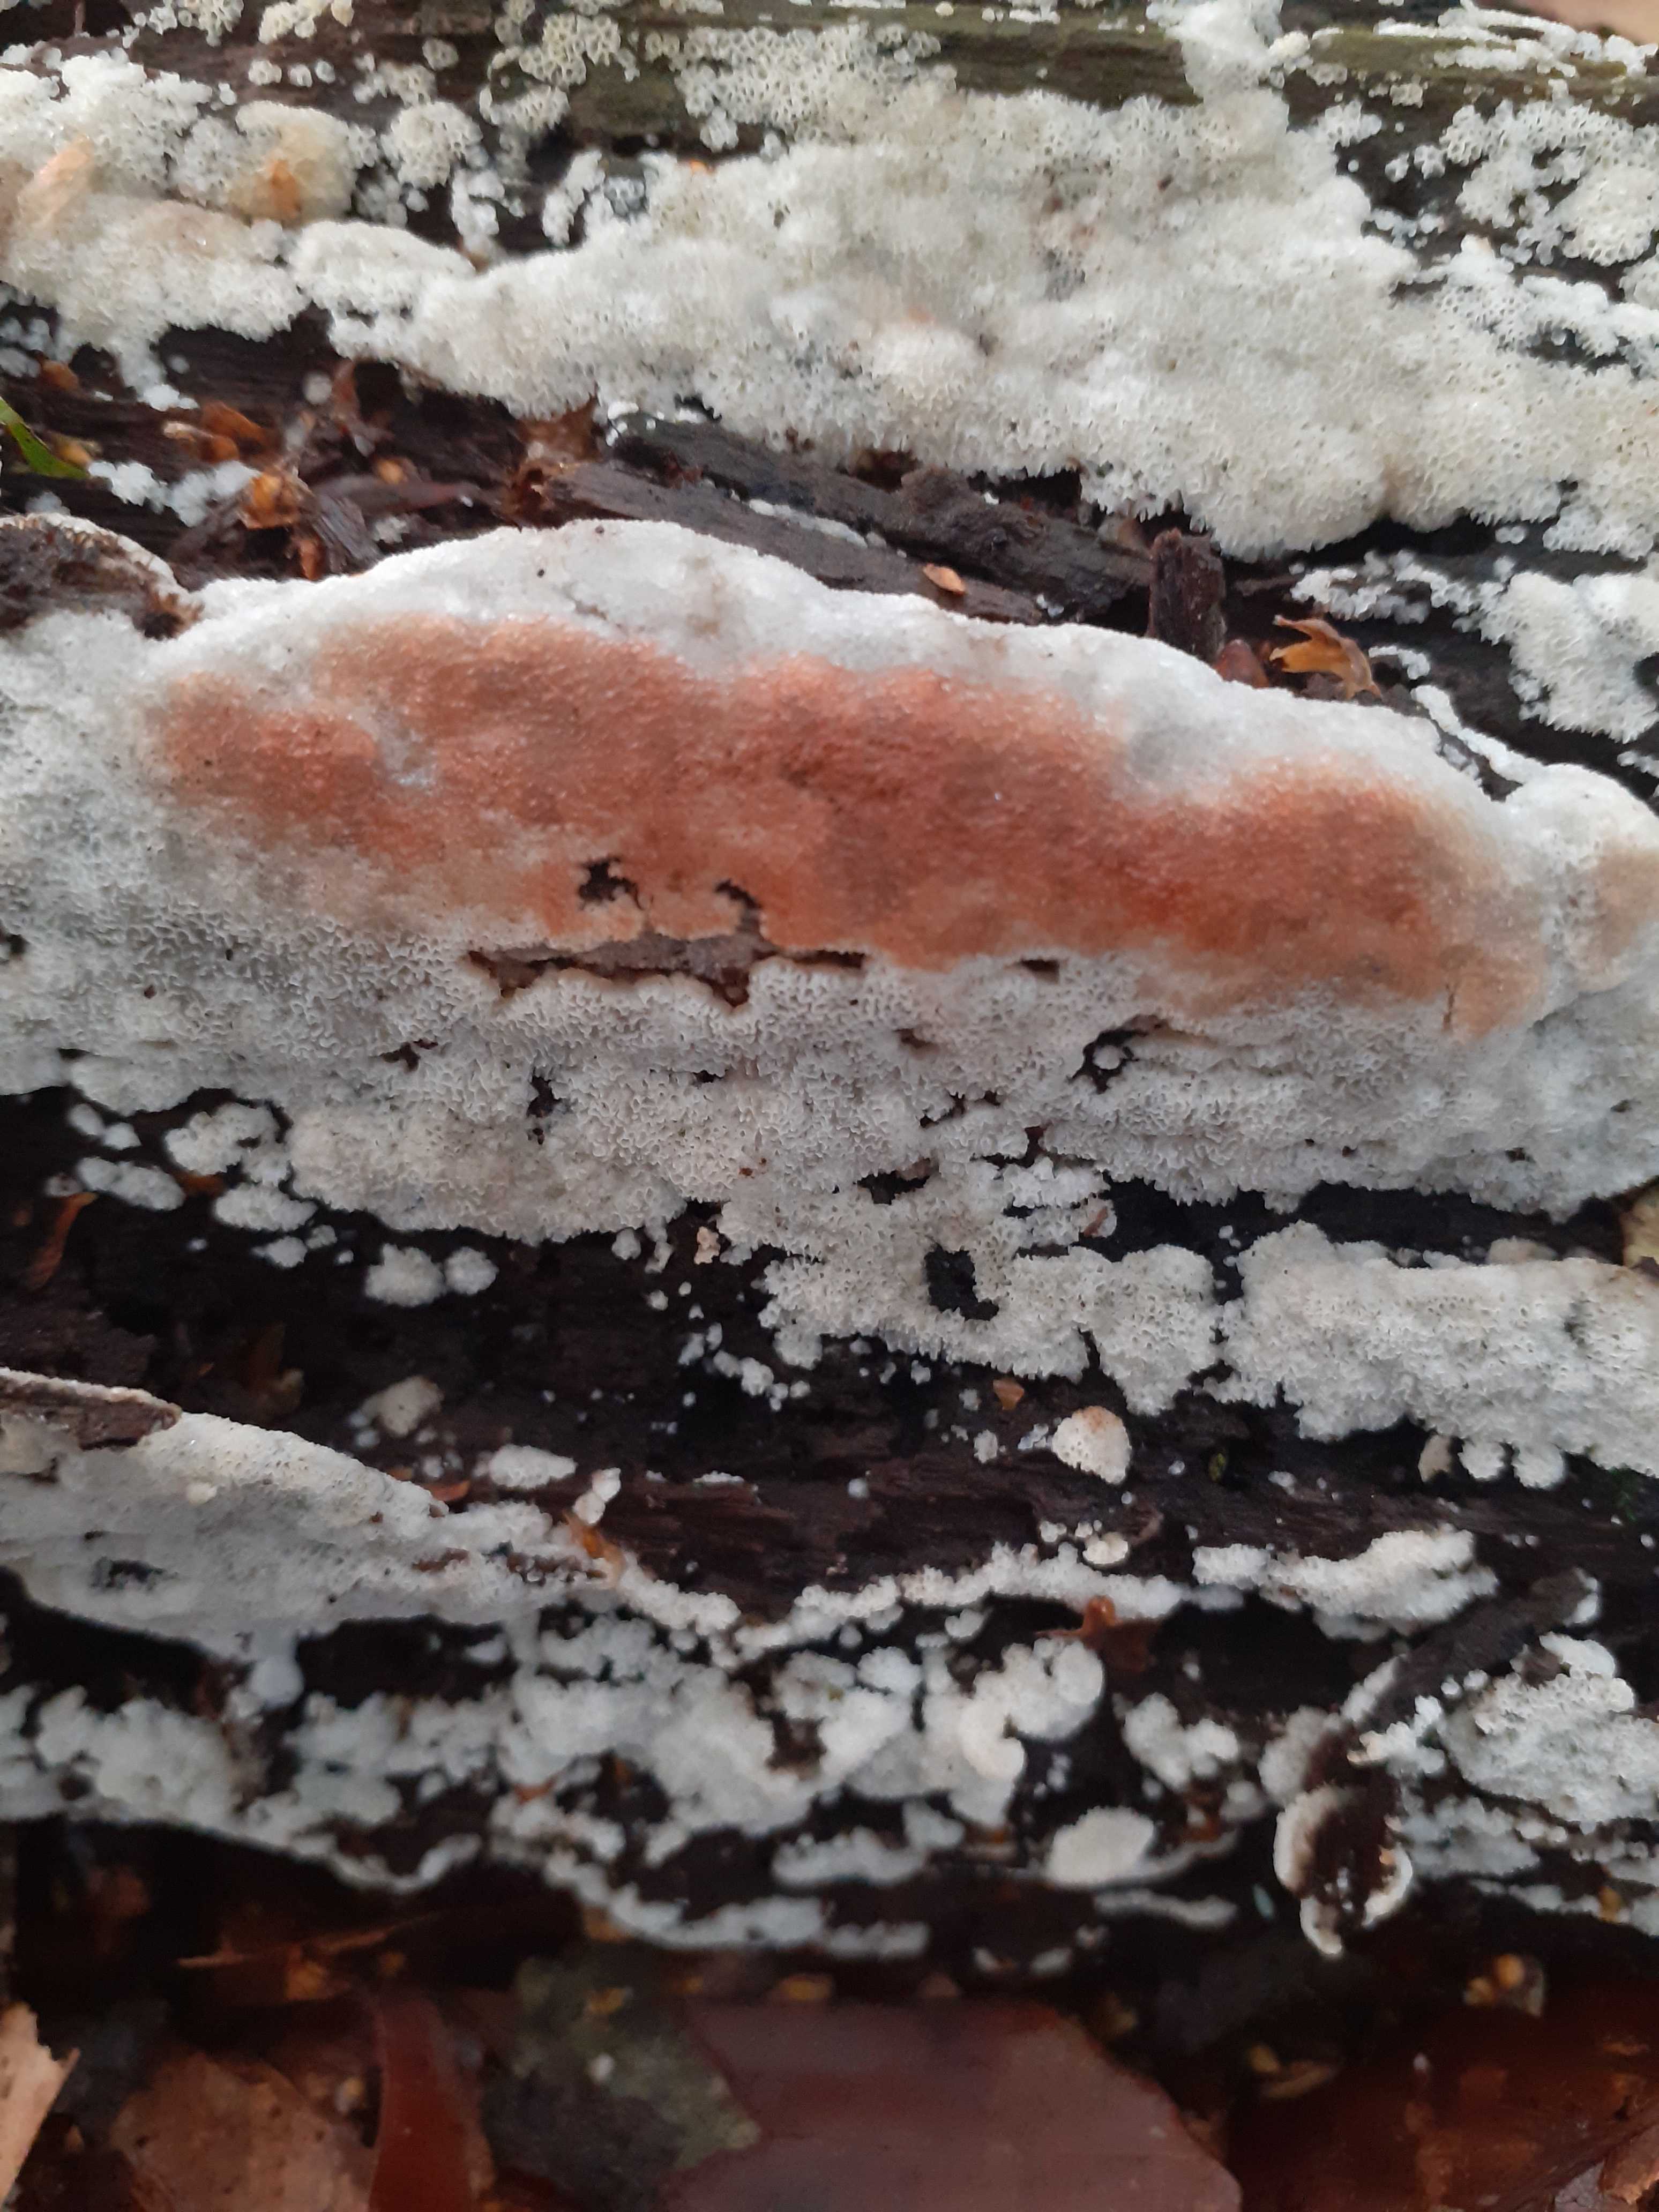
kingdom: Fungi
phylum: Basidiomycota
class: Agaricomycetes
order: Polyporales
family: Meripilaceae
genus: Rigidoporus
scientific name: Rigidoporus sanguinolentus
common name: blod-skorpeporesvamp
